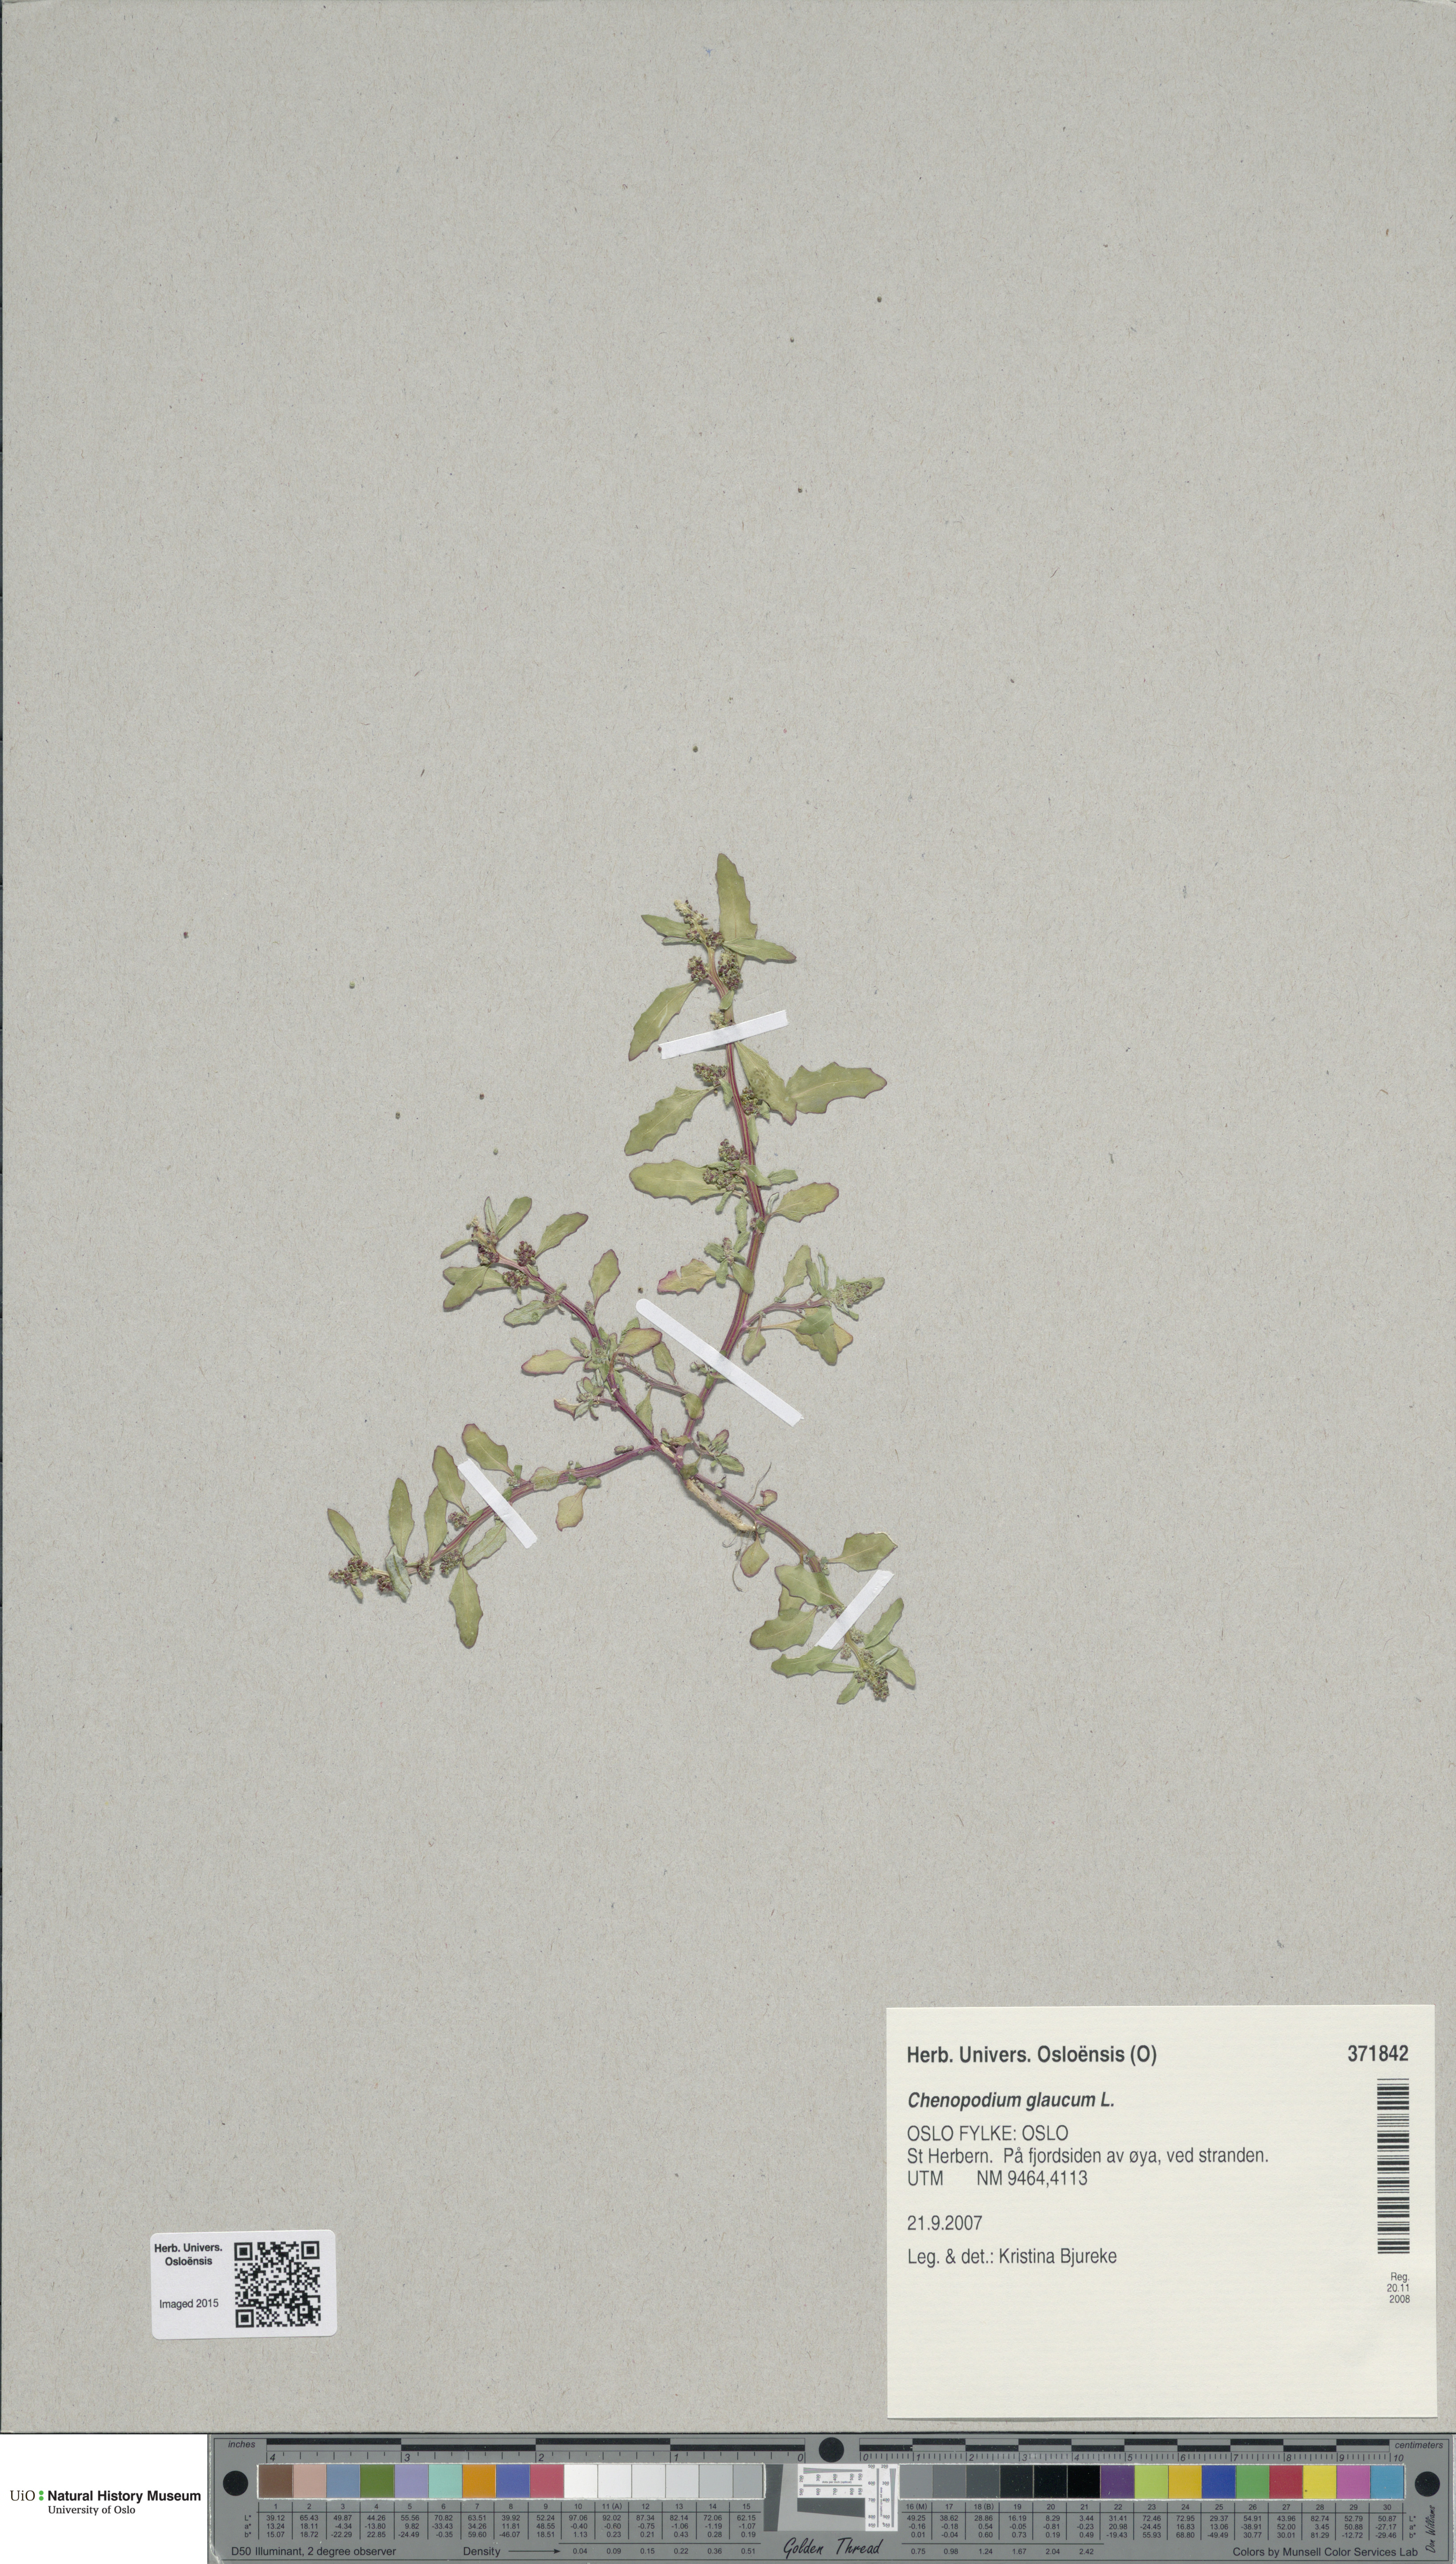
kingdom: Plantae
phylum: Tracheophyta
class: Magnoliopsida
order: Caryophyllales
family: Amaranthaceae
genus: Oxybasis
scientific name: Oxybasis glauca
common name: Glaucous goosefoot
